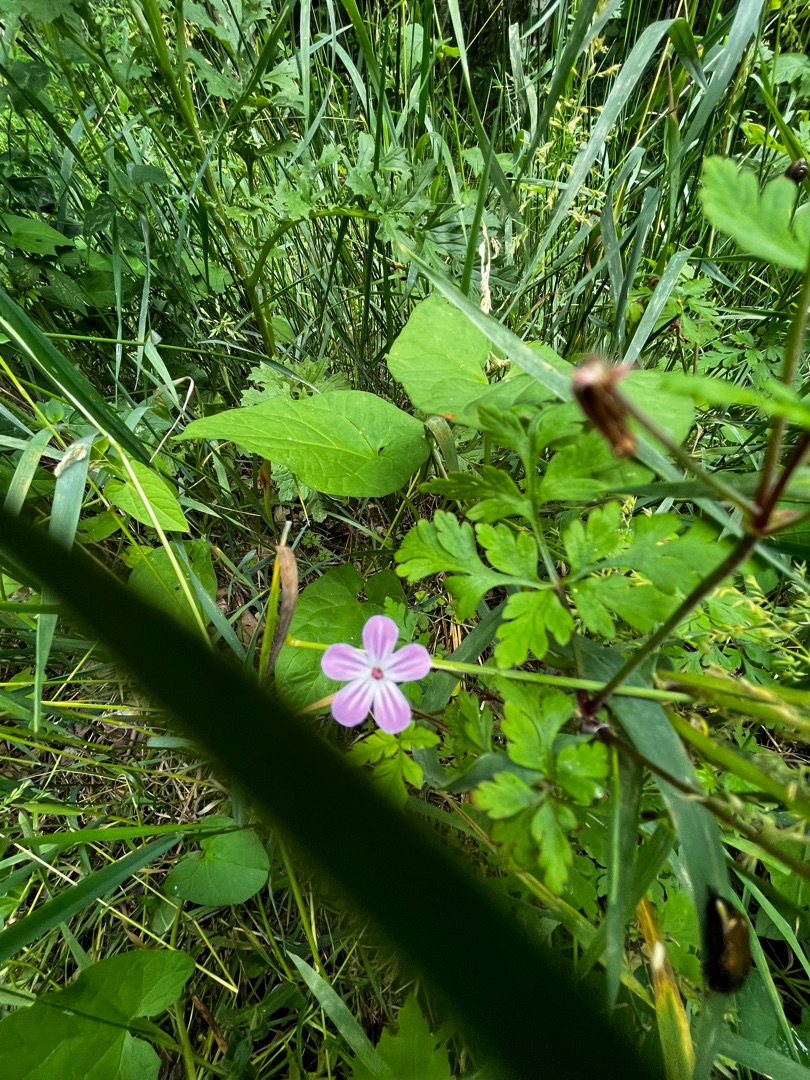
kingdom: Plantae
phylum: Tracheophyta
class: Magnoliopsida
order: Geraniales
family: Geraniaceae
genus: Geranium
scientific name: Geranium robertianum
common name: Stinkende storkenæb
